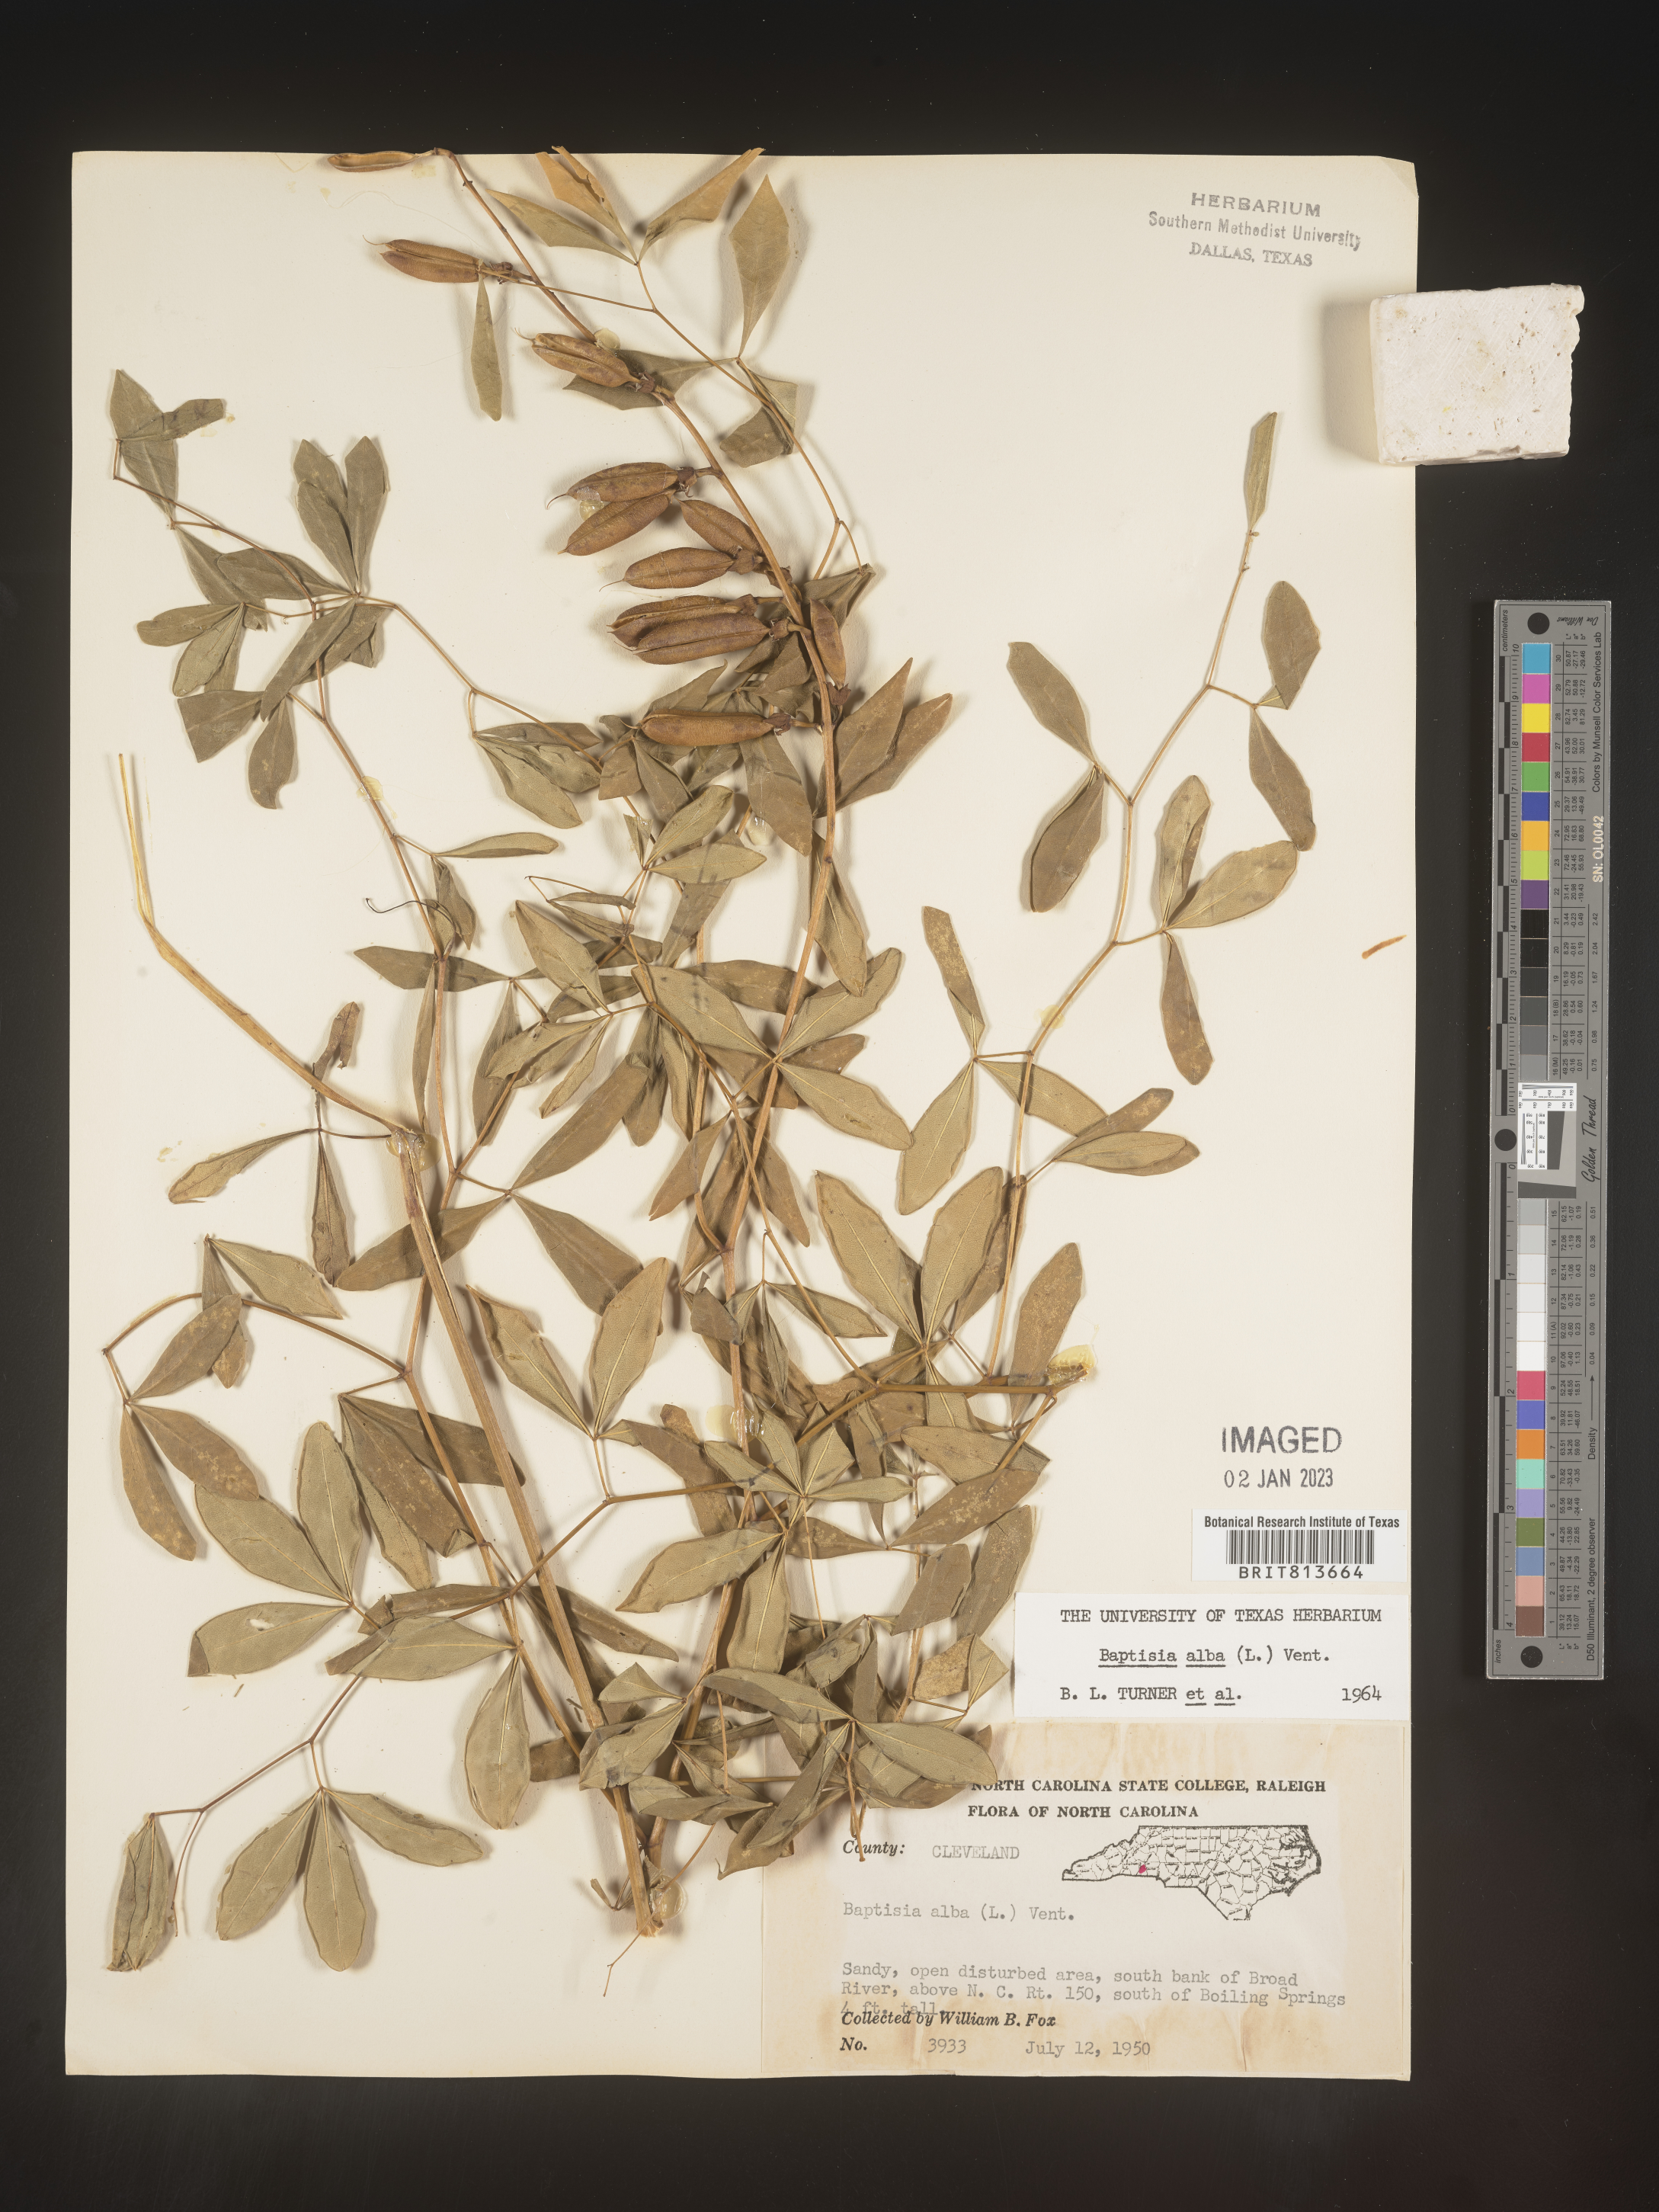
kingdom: Plantae
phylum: Tracheophyta
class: Magnoliopsida
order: Fabales
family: Fabaceae
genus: Baptisia
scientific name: Baptisia alba
